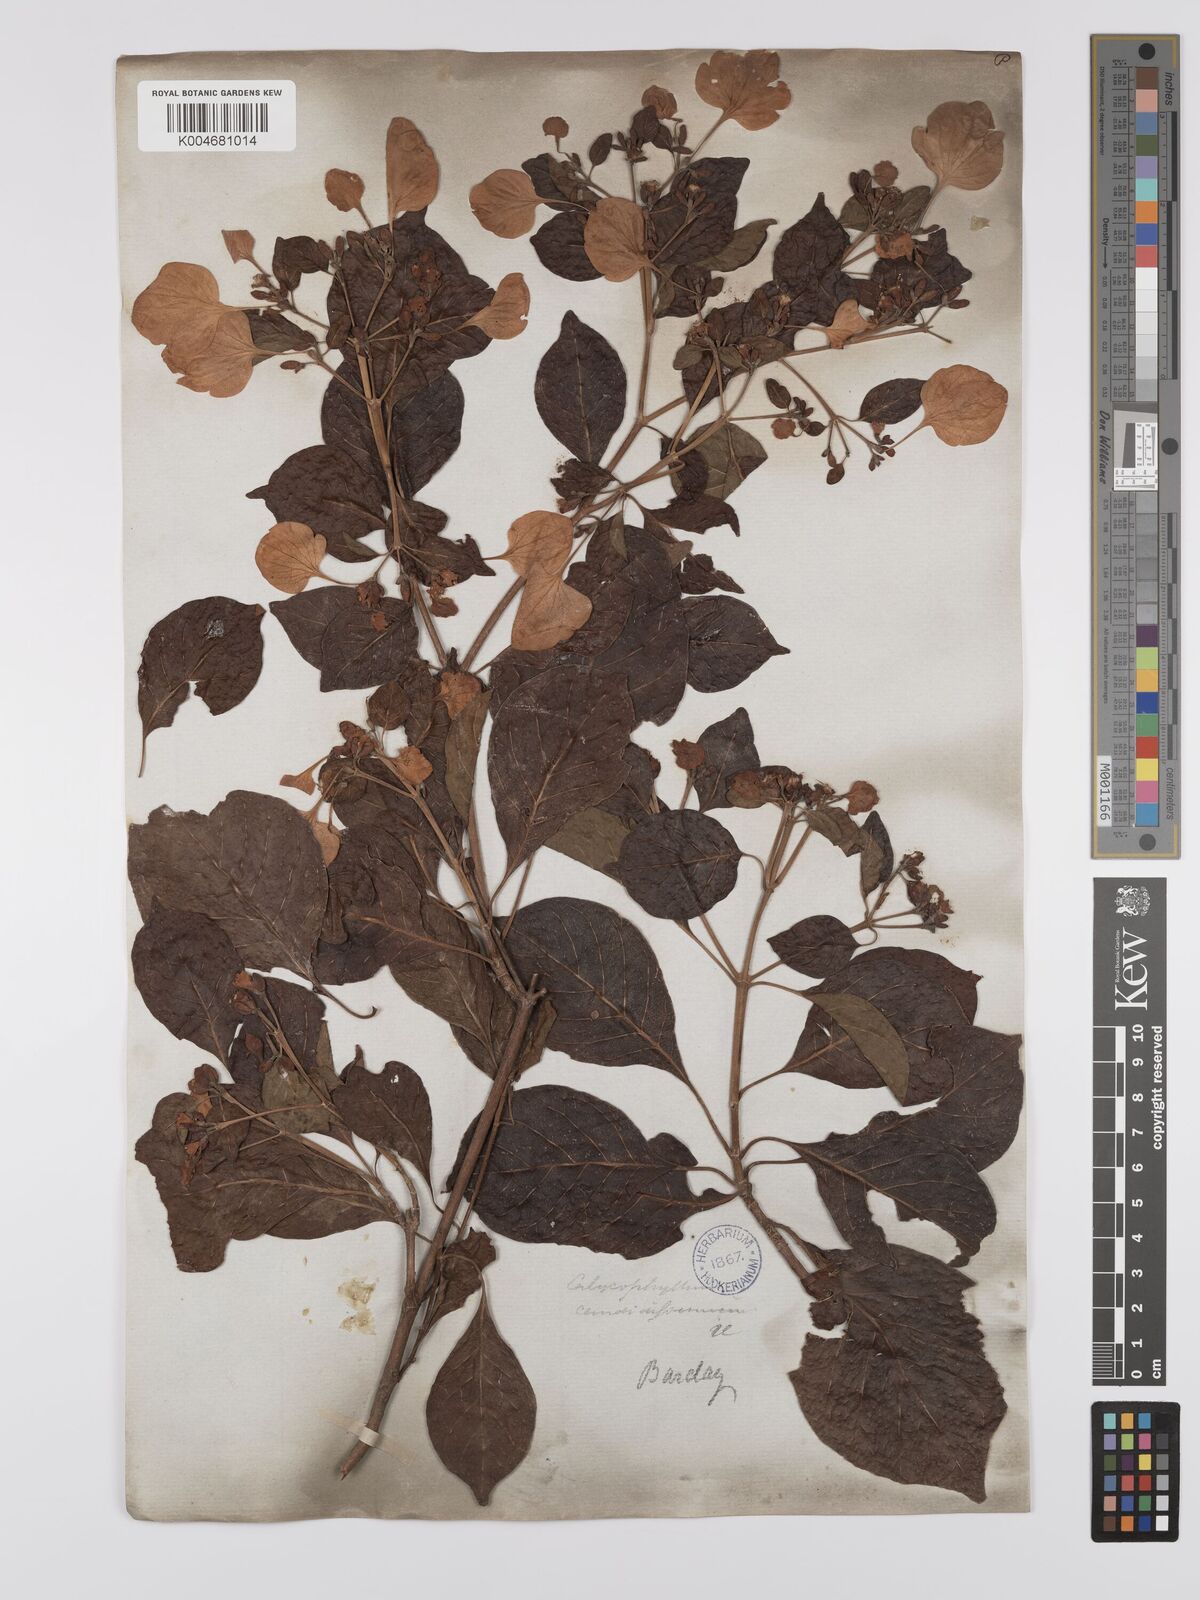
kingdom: Plantae
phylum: Tracheophyta
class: Magnoliopsida
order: Gentianales
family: Rubiaceae
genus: Calycophyllum
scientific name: Calycophyllum candidissimum
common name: Dagame
